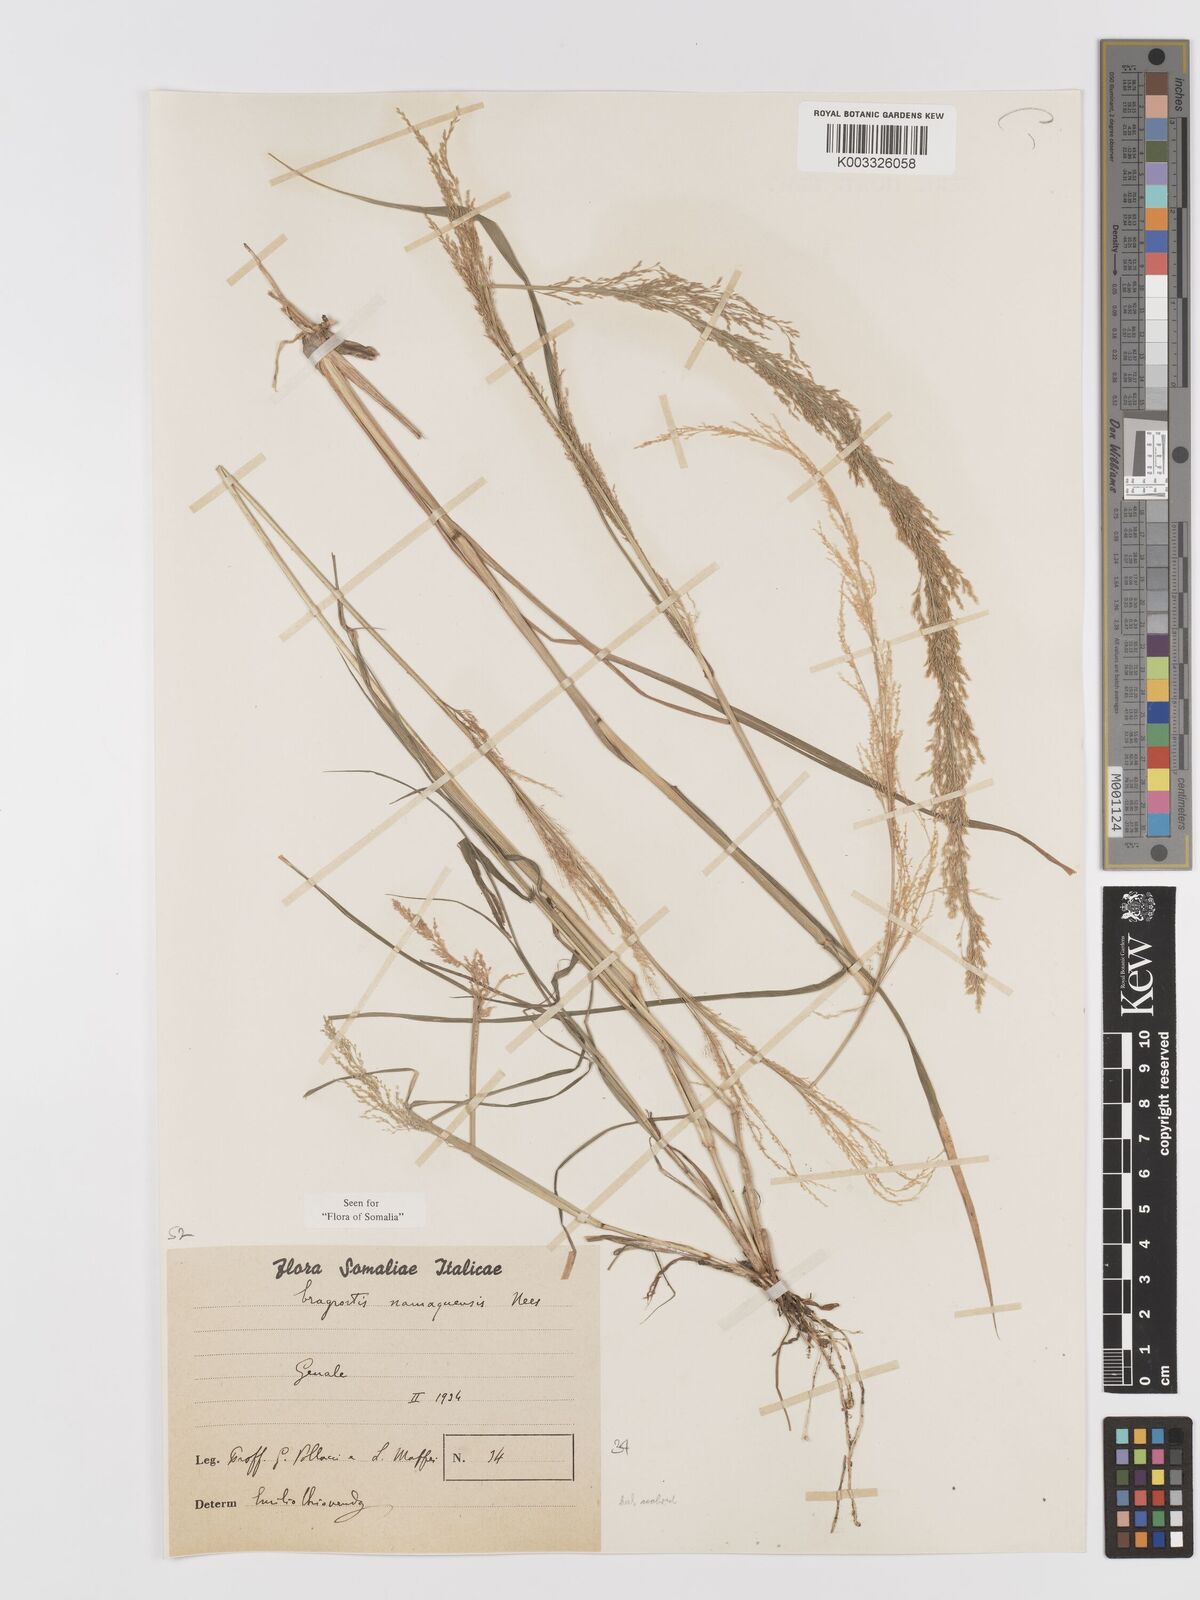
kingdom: Plantae
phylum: Tracheophyta
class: Liliopsida
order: Poales
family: Poaceae
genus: Eragrostis
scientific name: Eragrostis japonica
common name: Pond lovegrass
